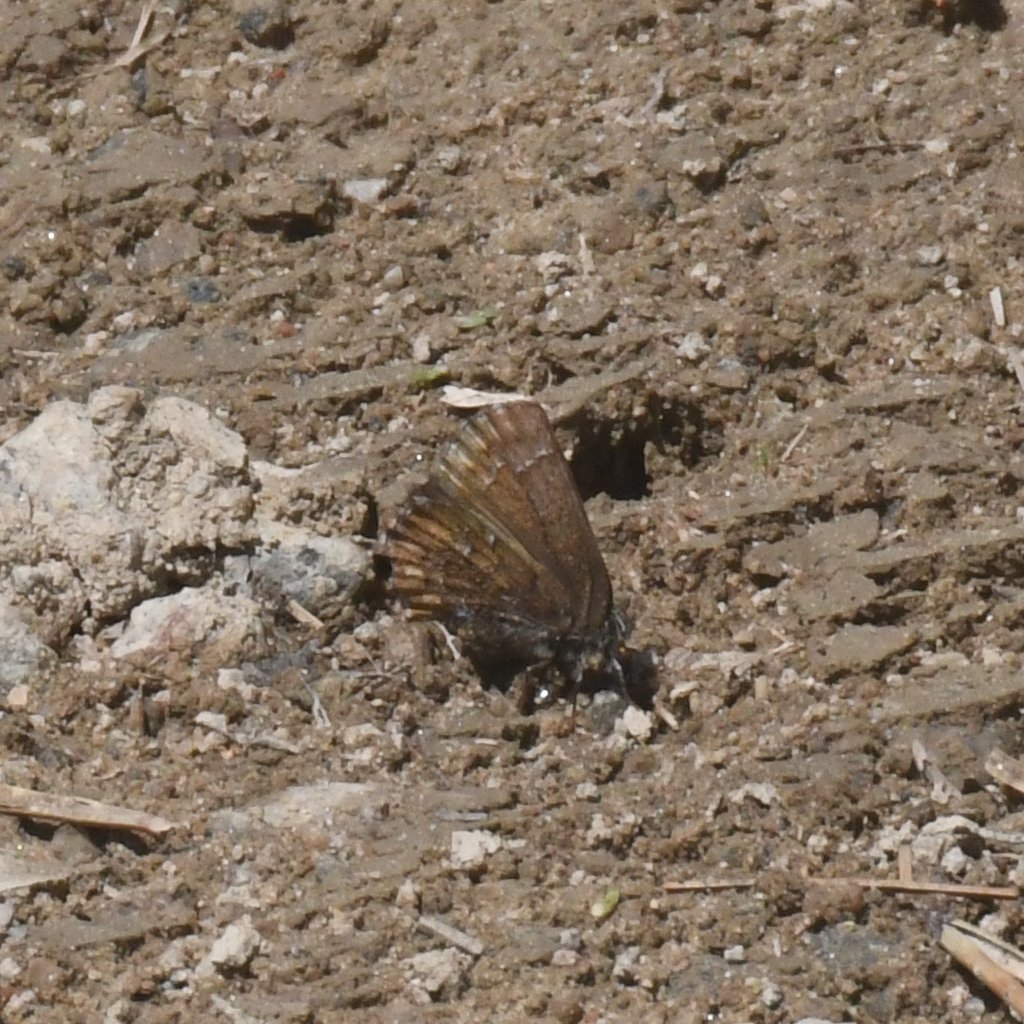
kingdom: Animalia
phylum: Arthropoda
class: Insecta
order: Lepidoptera
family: Lycaenidae
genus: Incisalia
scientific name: Incisalia niphon
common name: Eastern Pine Elfin
